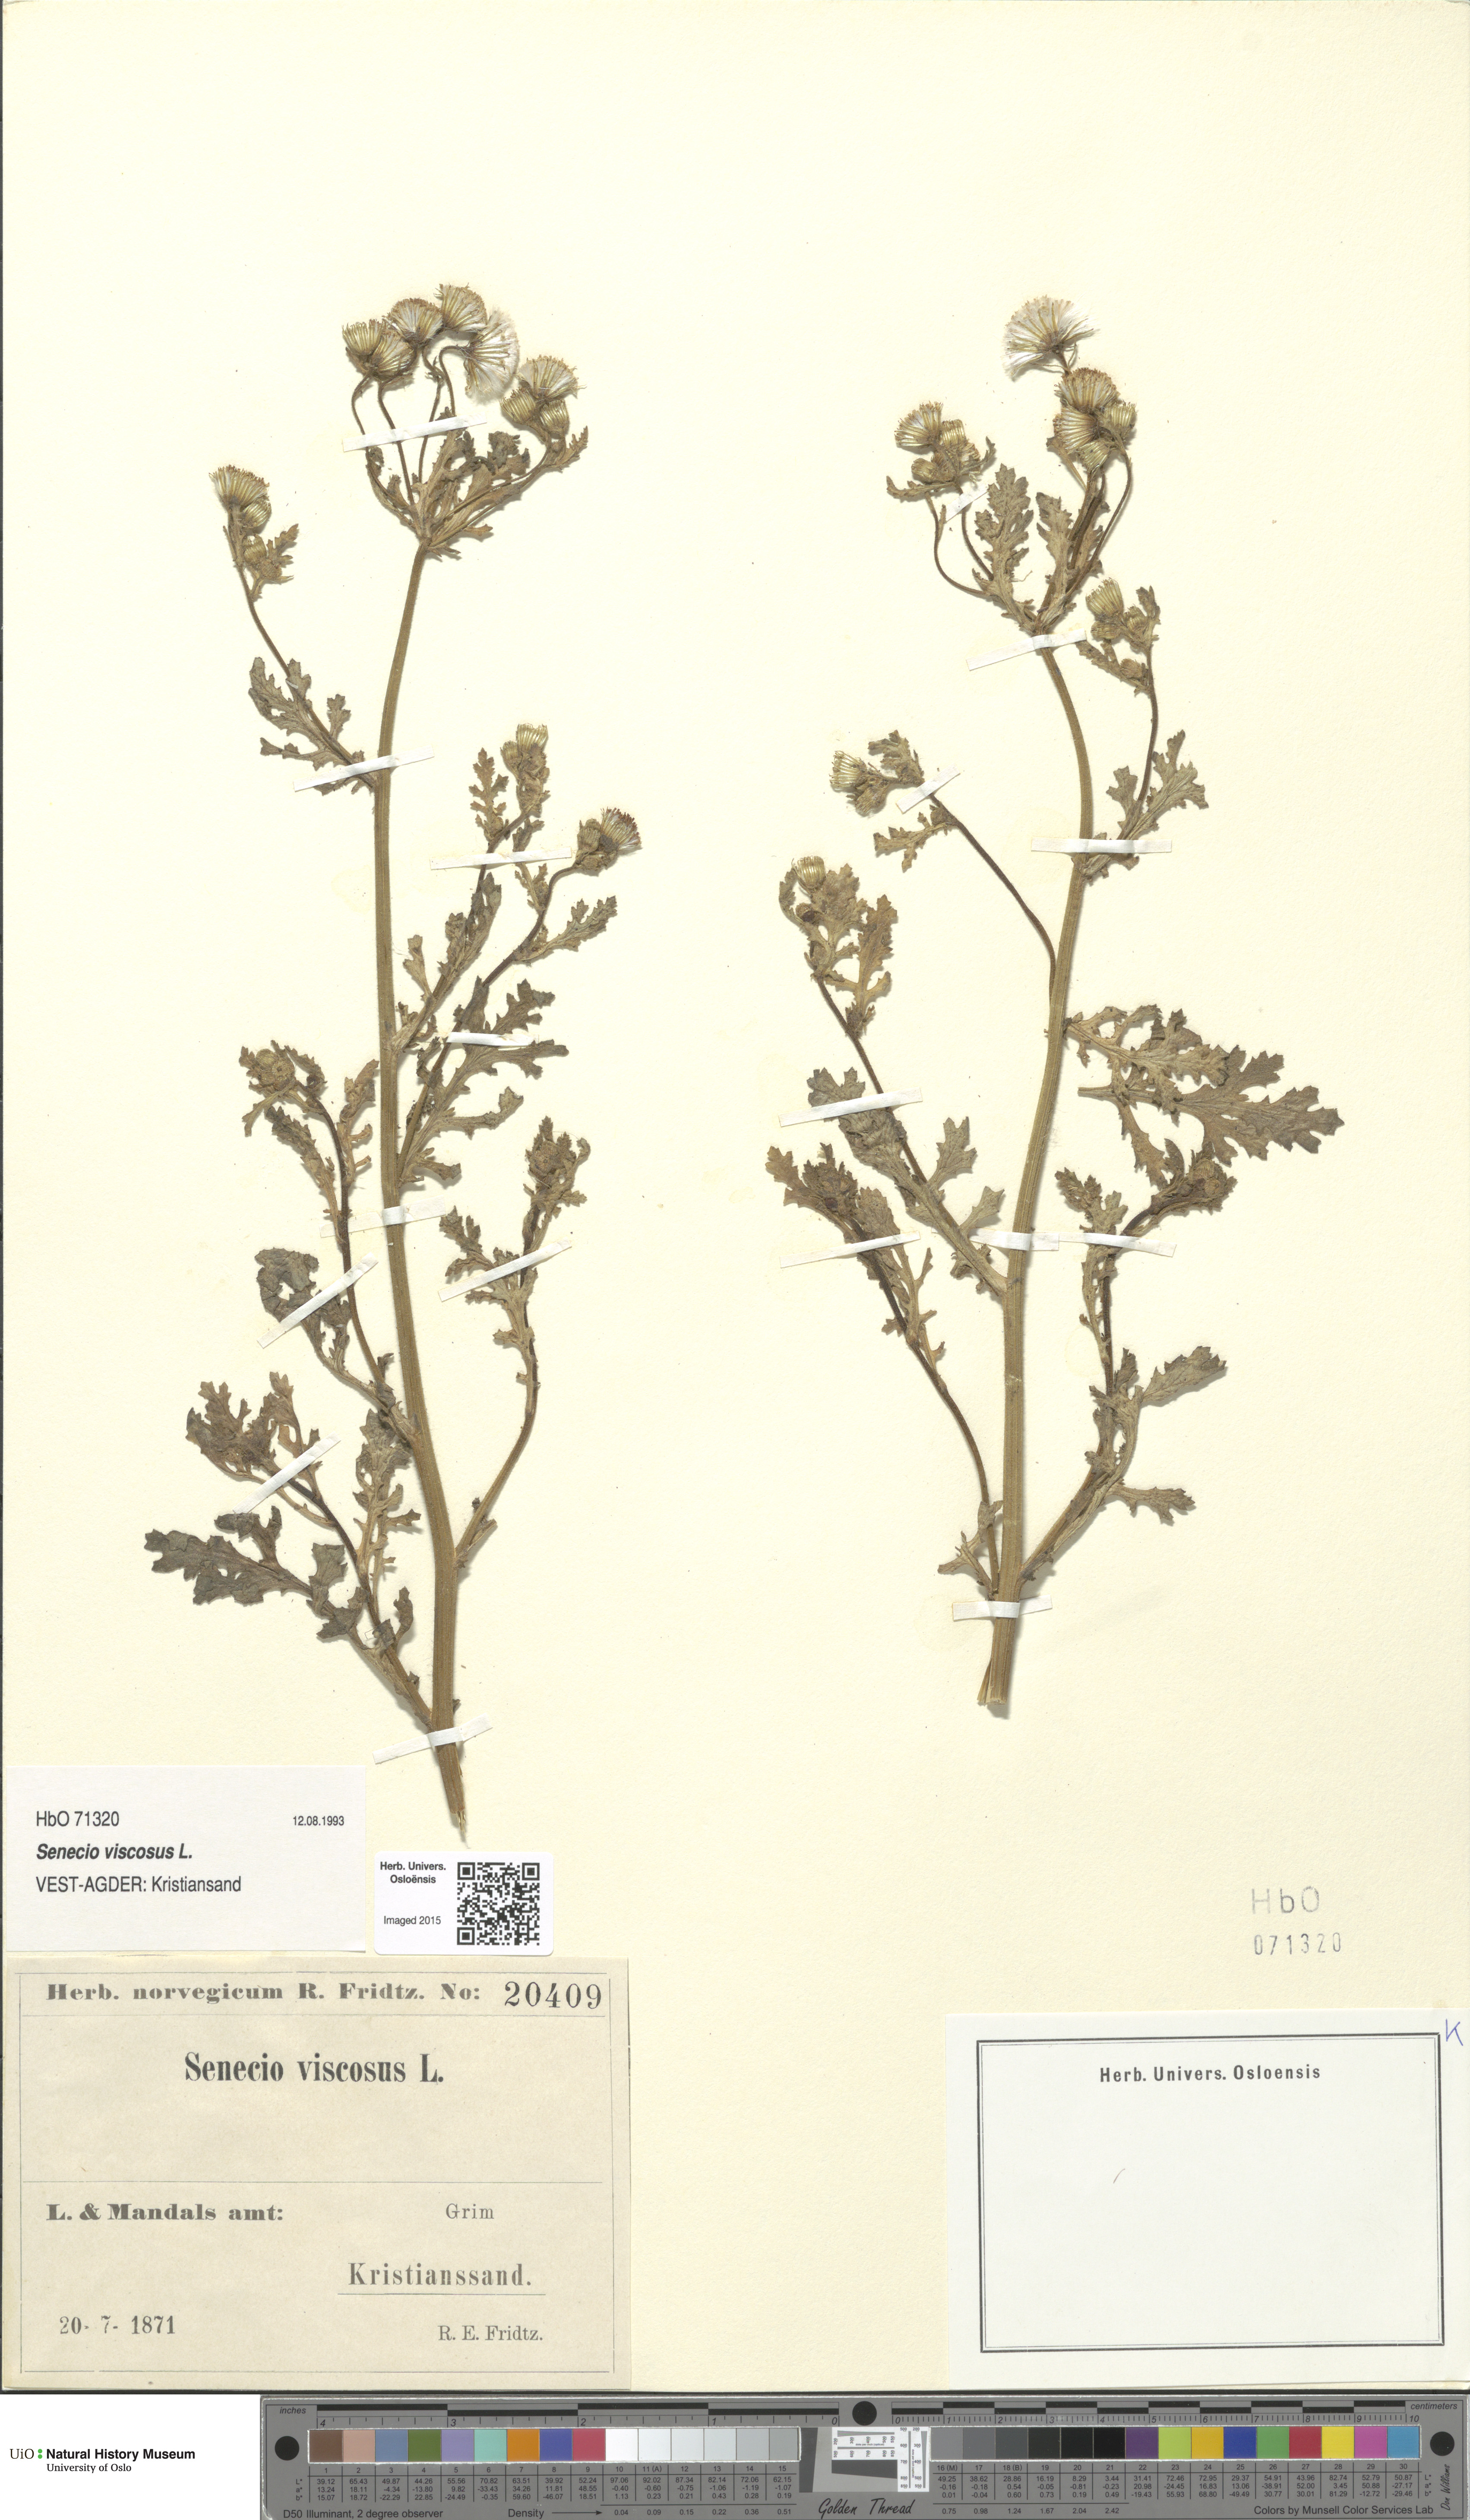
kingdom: Plantae
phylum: Tracheophyta
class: Magnoliopsida
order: Asterales
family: Asteraceae
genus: Senecio
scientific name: Senecio viscosus
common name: Sticky groundsel
